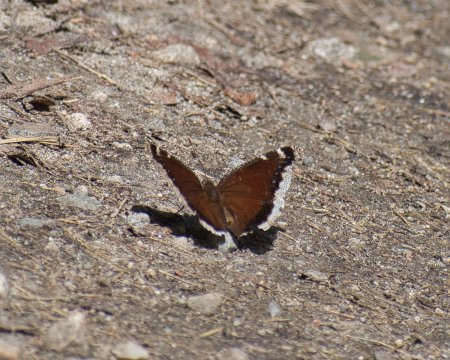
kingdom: Animalia
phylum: Arthropoda
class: Insecta
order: Lepidoptera
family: Nymphalidae
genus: Nymphalis
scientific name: Nymphalis antiopa
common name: Mourning Cloak
